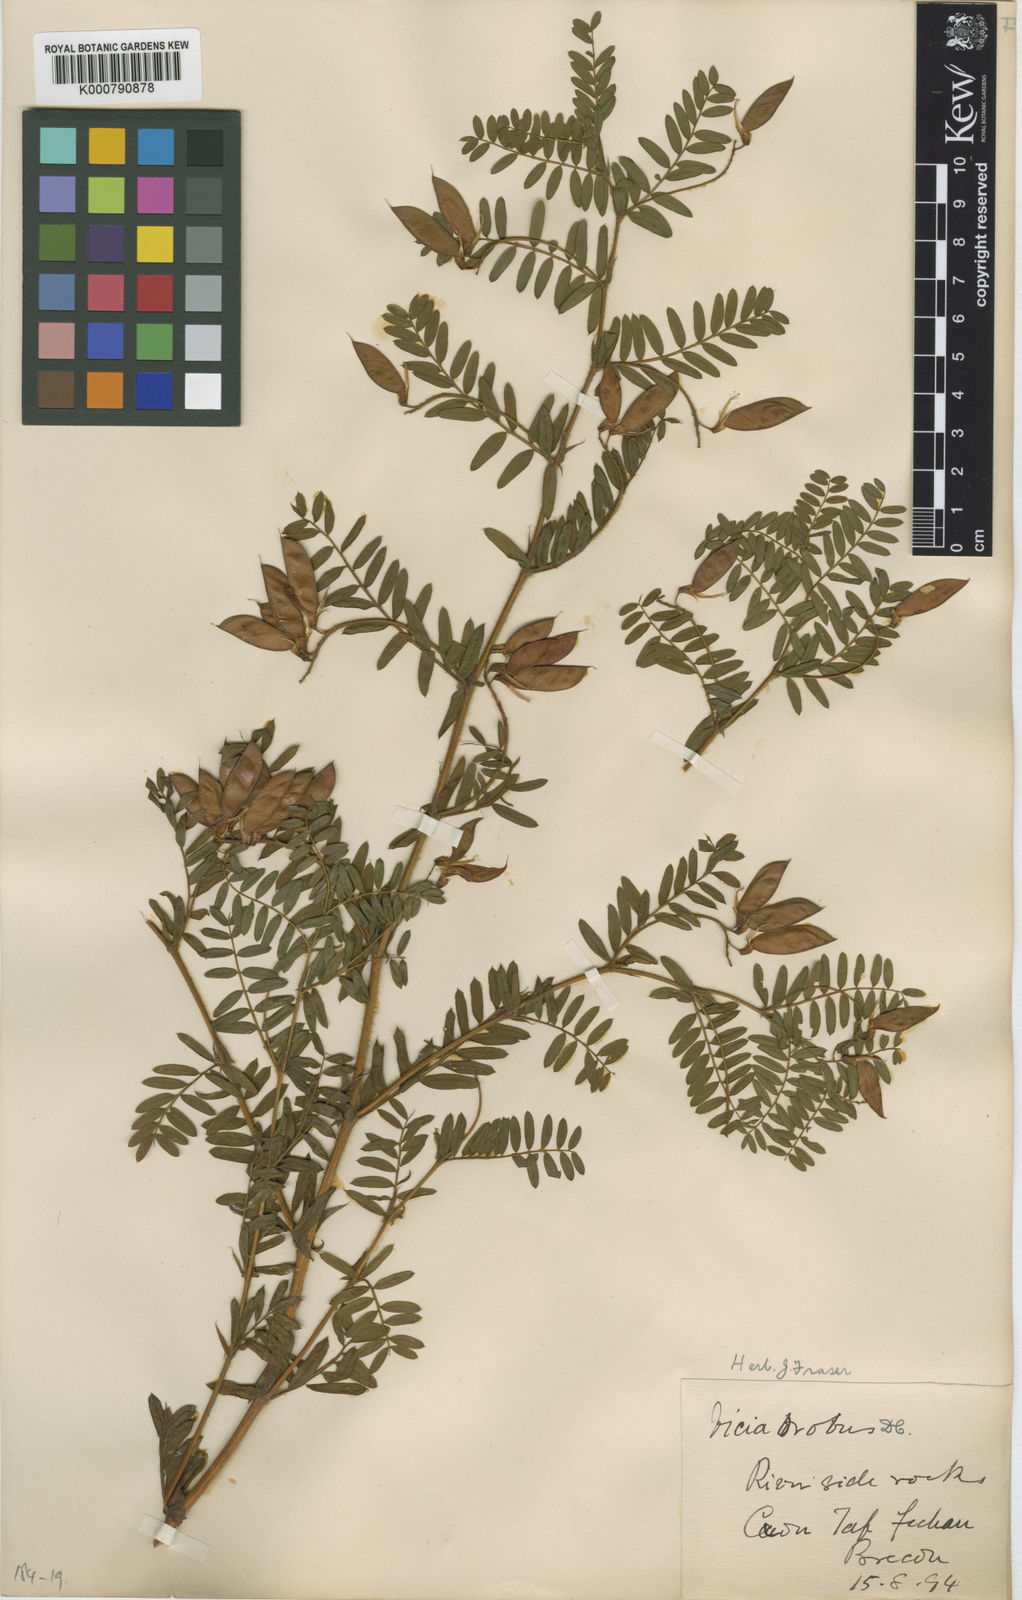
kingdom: Plantae
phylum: Tracheophyta
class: Magnoliopsida
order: Fabales
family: Fabaceae
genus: Vicia
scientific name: Vicia orobus
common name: Wood bitter-vetch
